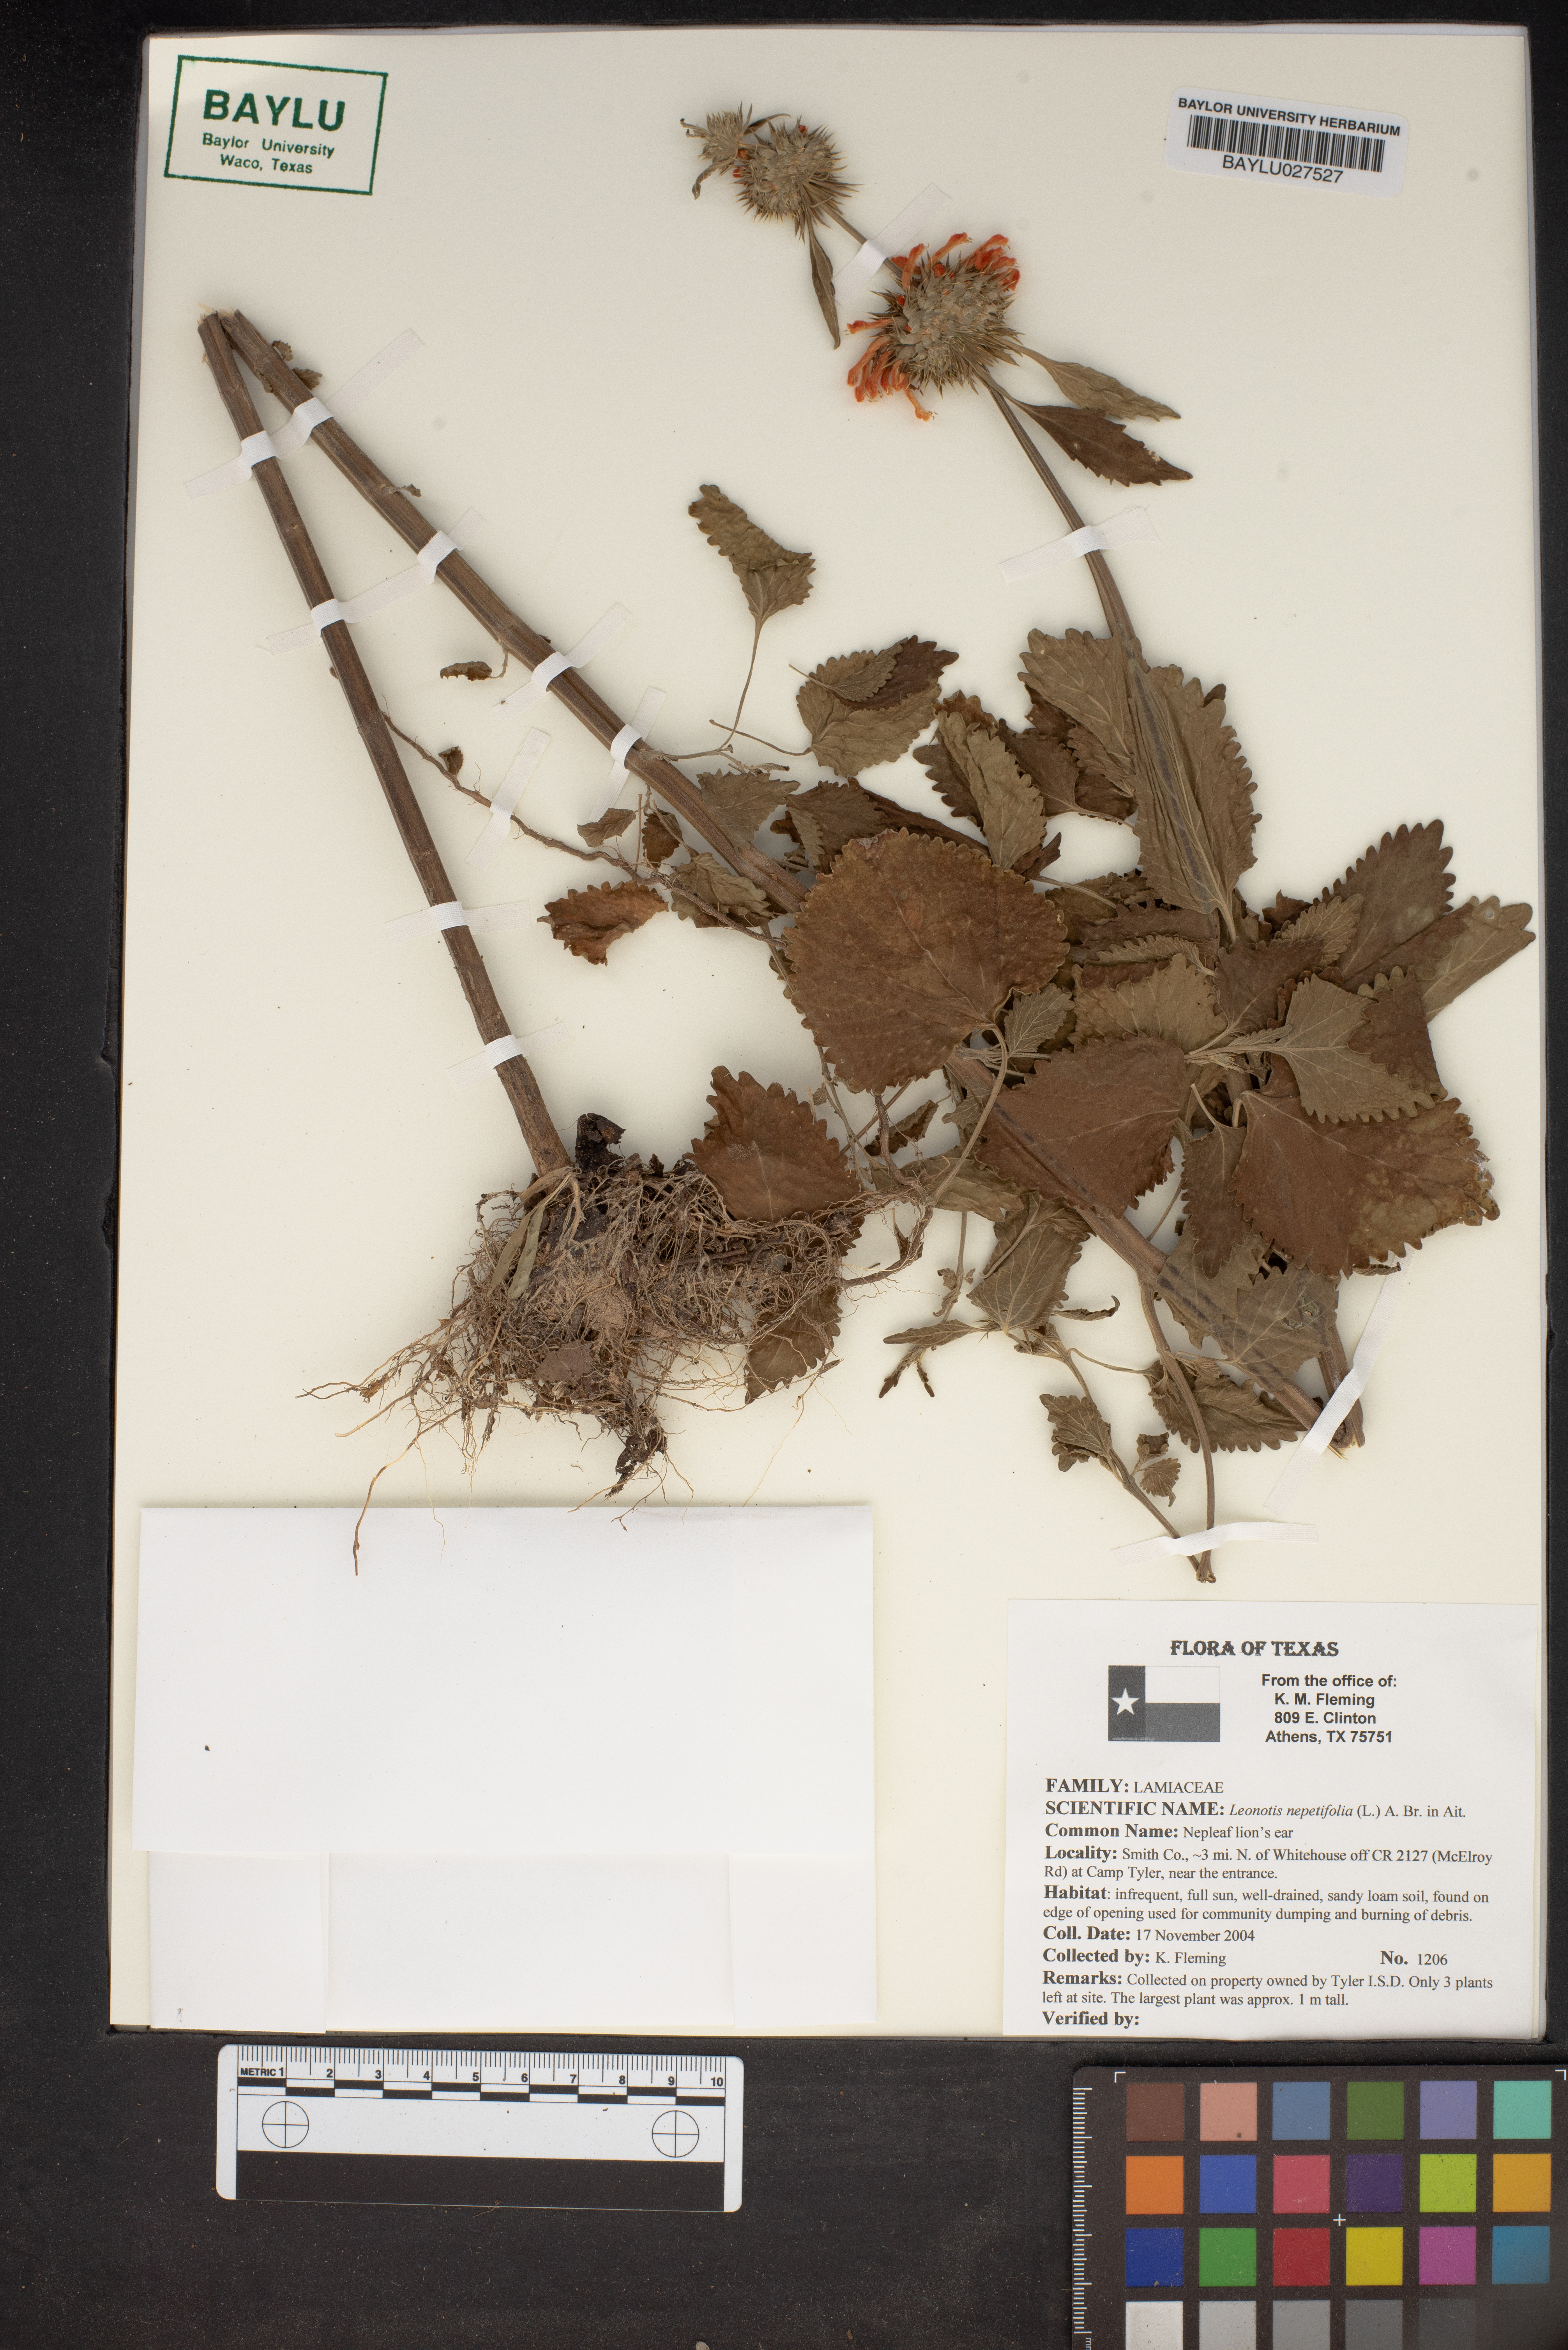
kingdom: Plantae
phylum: Tracheophyta
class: Magnoliopsida
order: Lamiales
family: Lamiaceae
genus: Leonotis
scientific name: Leonotis nepetifolia
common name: Christmas candlestick
